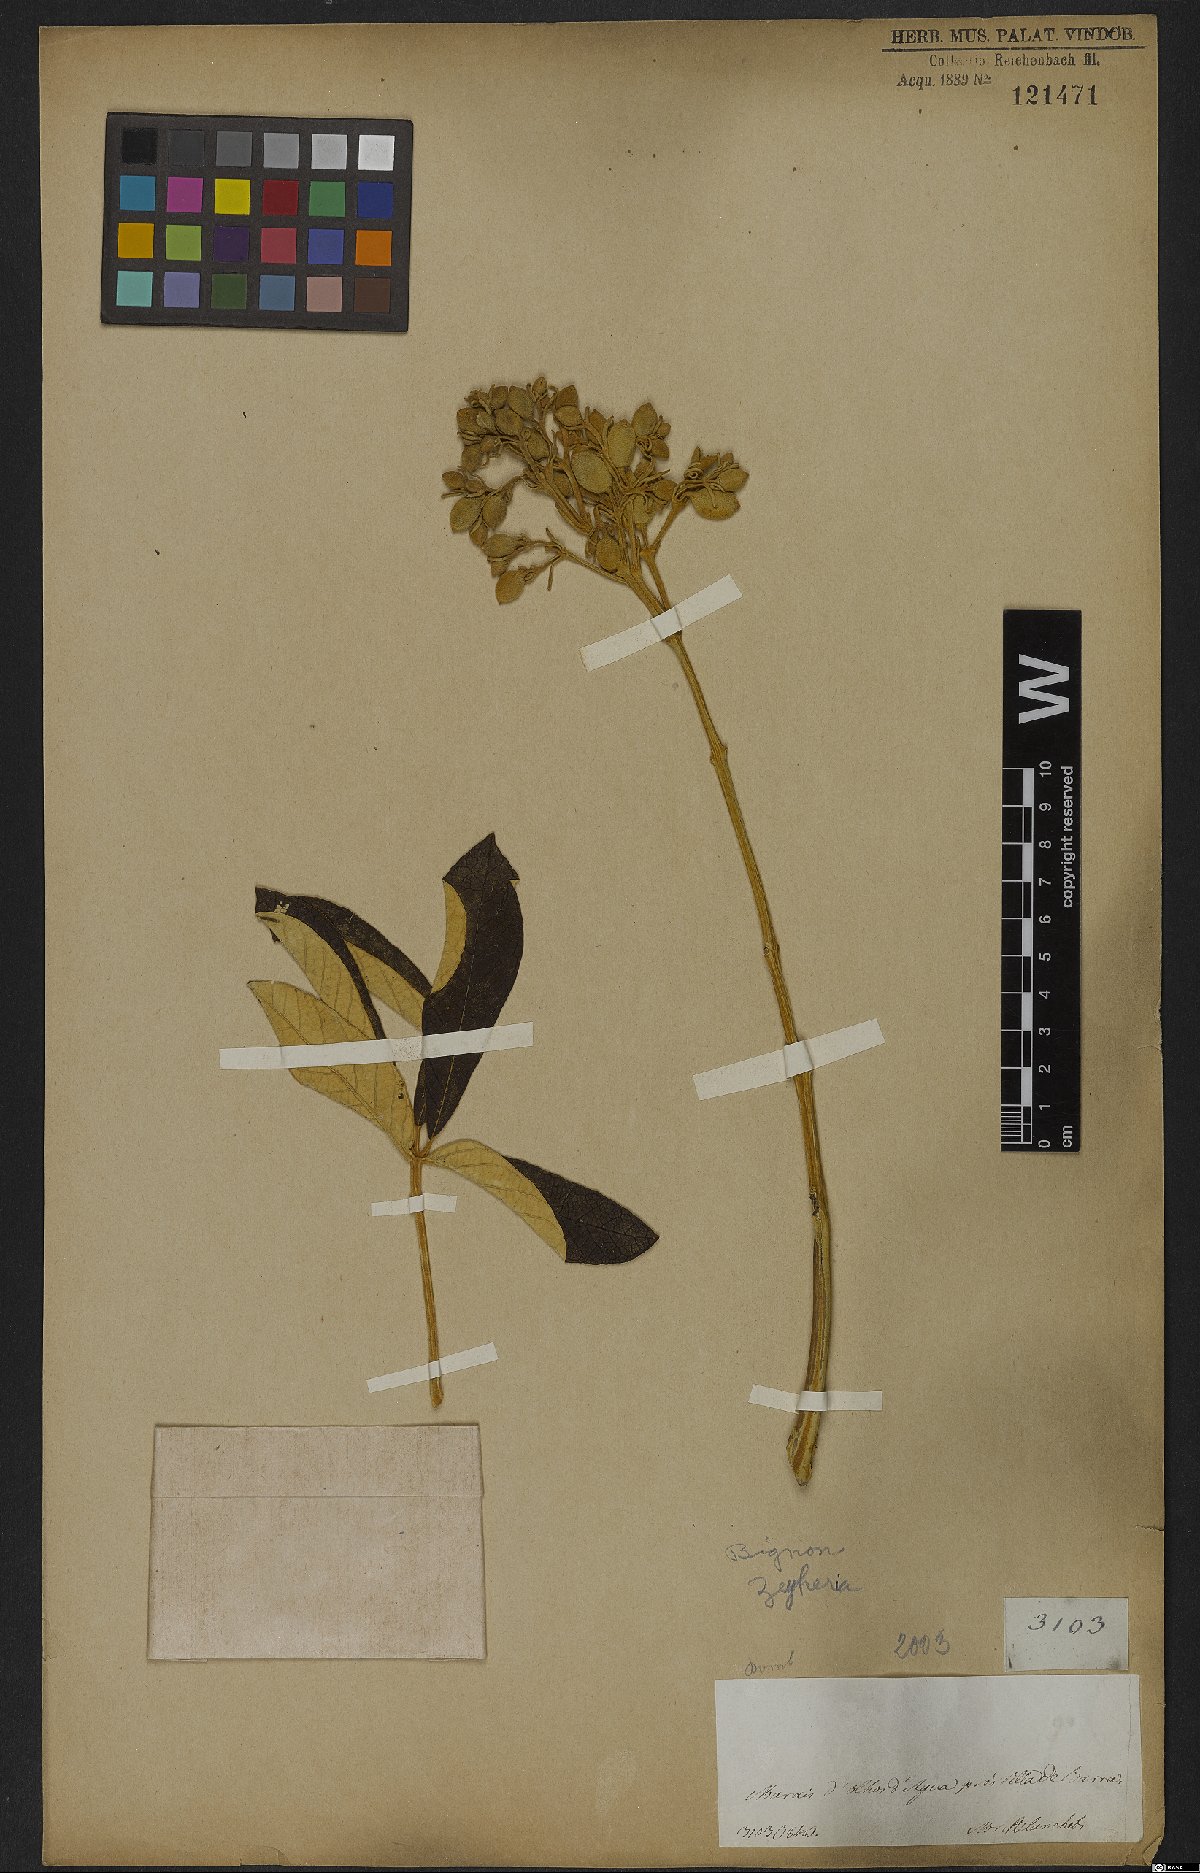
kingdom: Plantae
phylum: Tracheophyta
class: Magnoliopsida
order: Lamiales
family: Bignoniaceae
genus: Zeyheria
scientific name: Zeyheria
